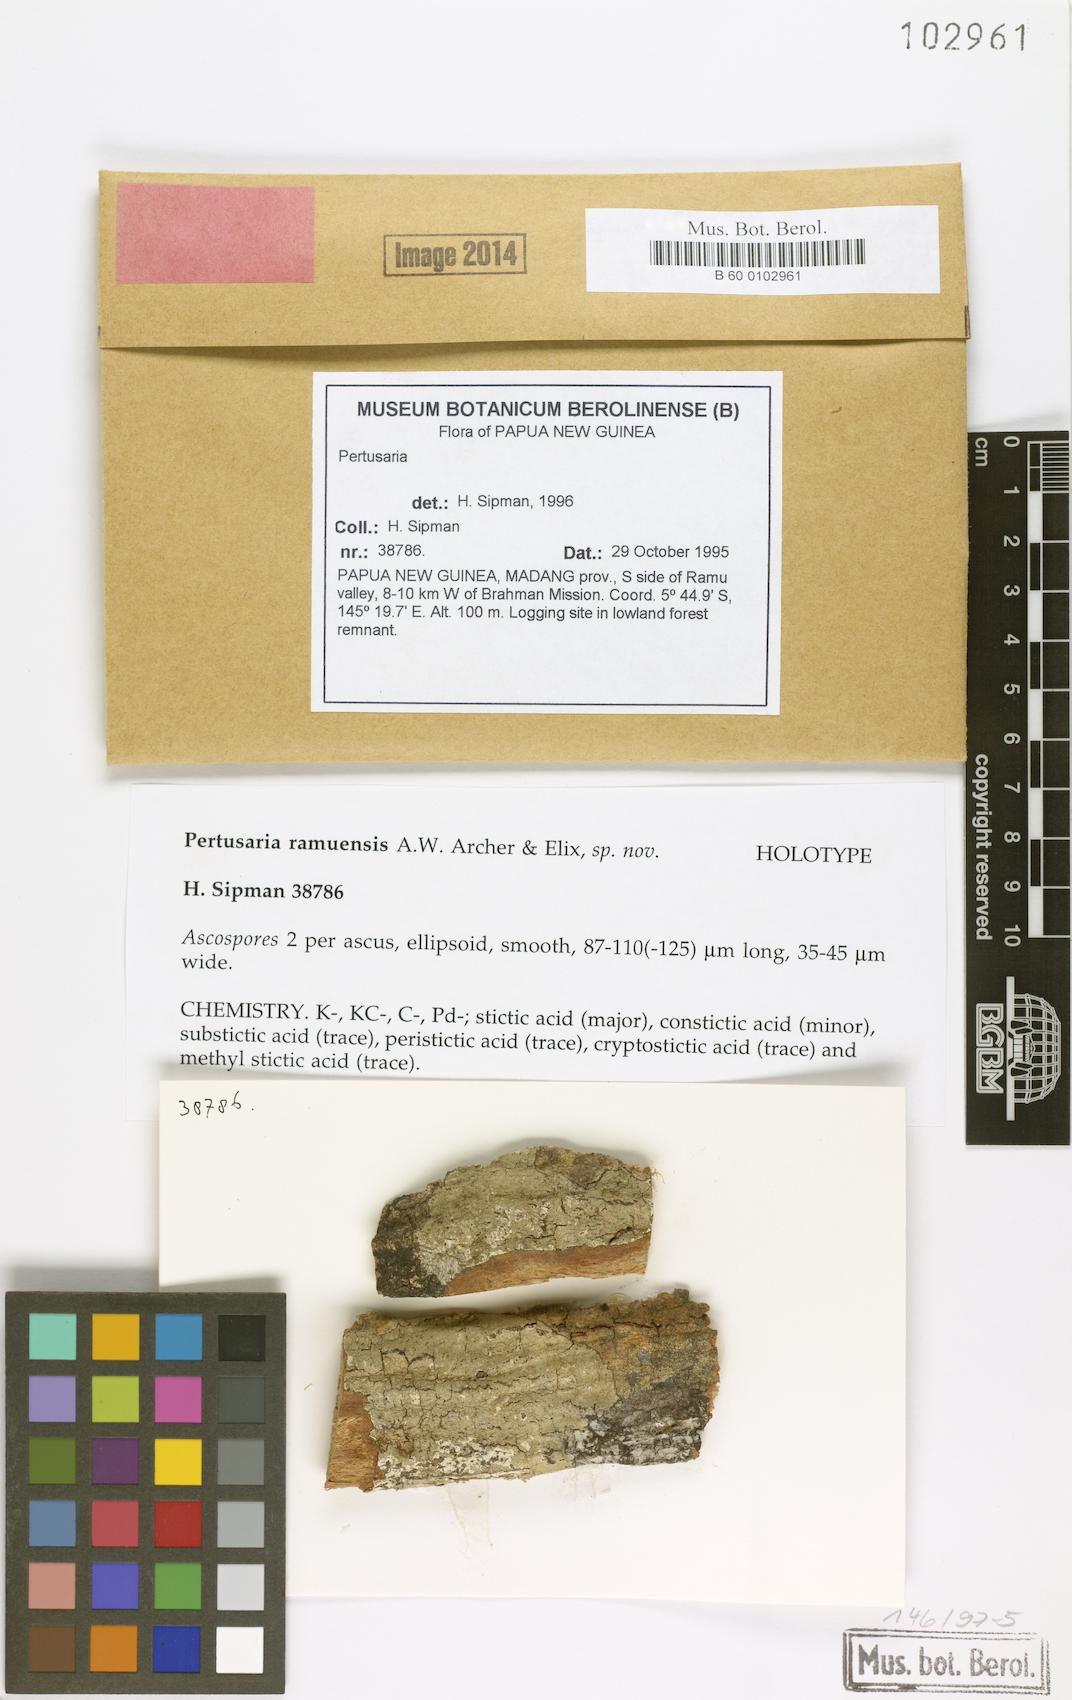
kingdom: Fungi
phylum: Ascomycota
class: Lecanoromycetes
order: Pertusariales
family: Pertusariaceae
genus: Pertusaria
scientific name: Pertusaria
